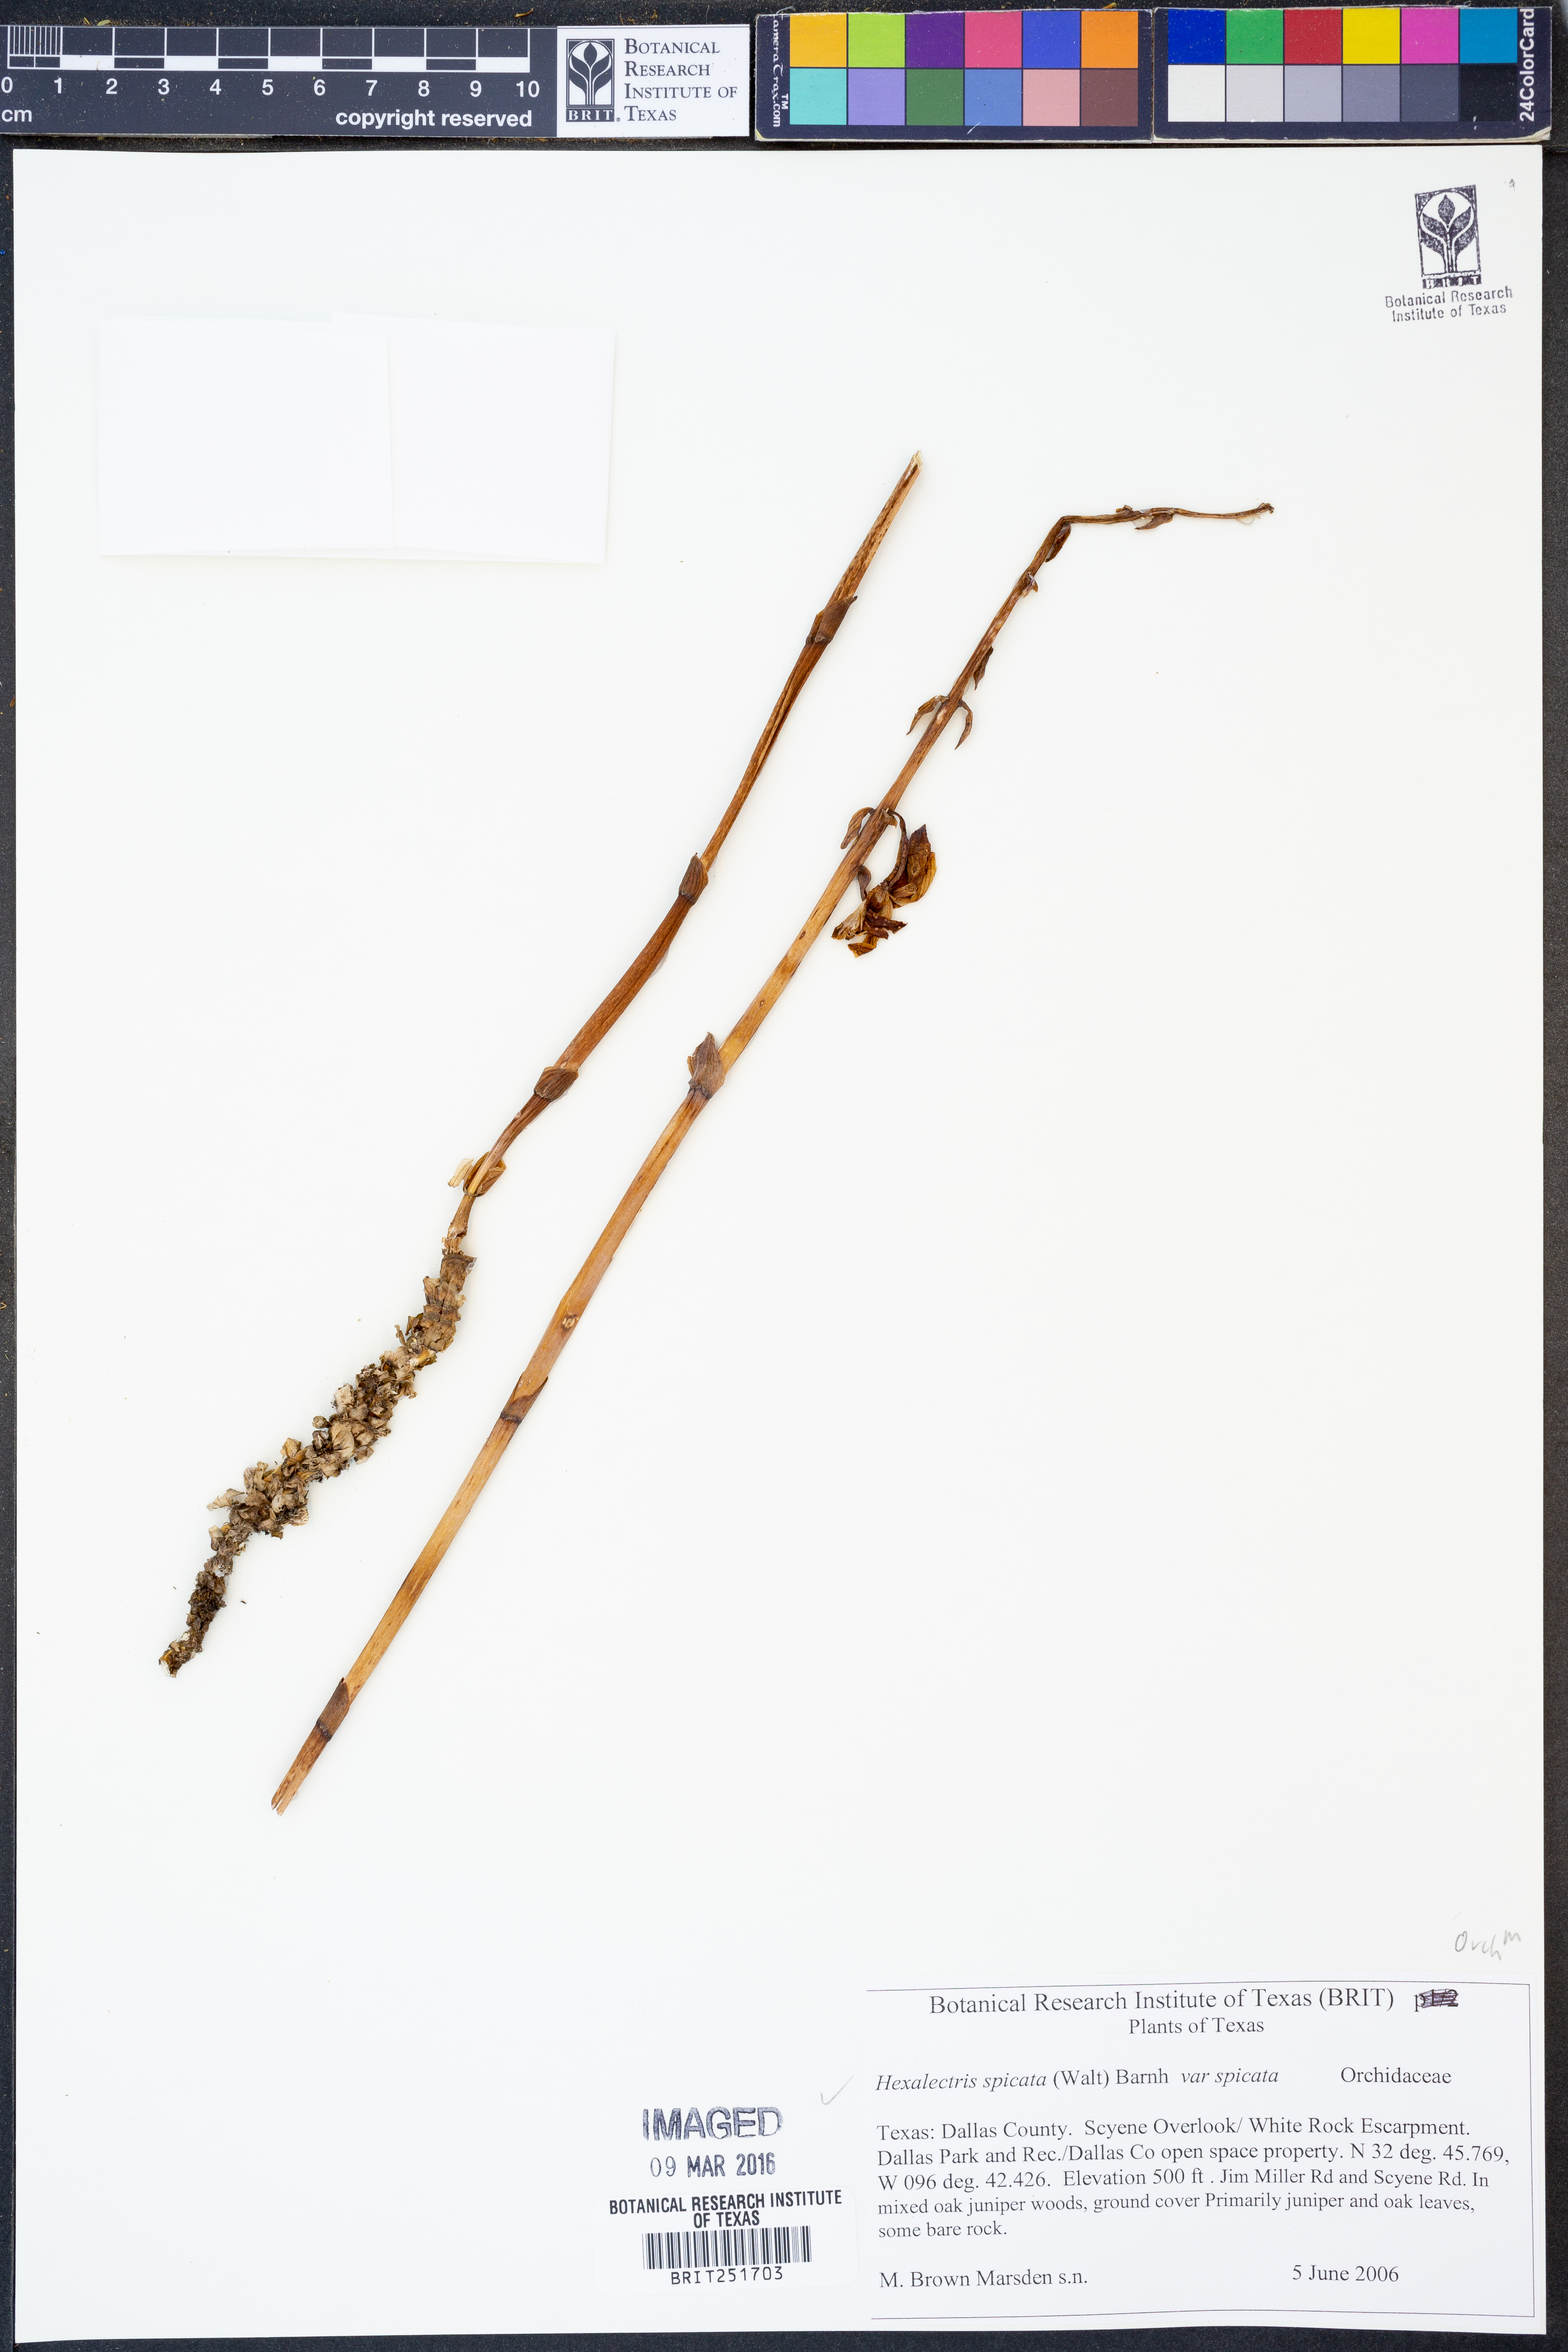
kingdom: Plantae
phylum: Tracheophyta
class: Liliopsida
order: Asparagales
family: Orchidaceae
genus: Bletia
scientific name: Bletia spicata
